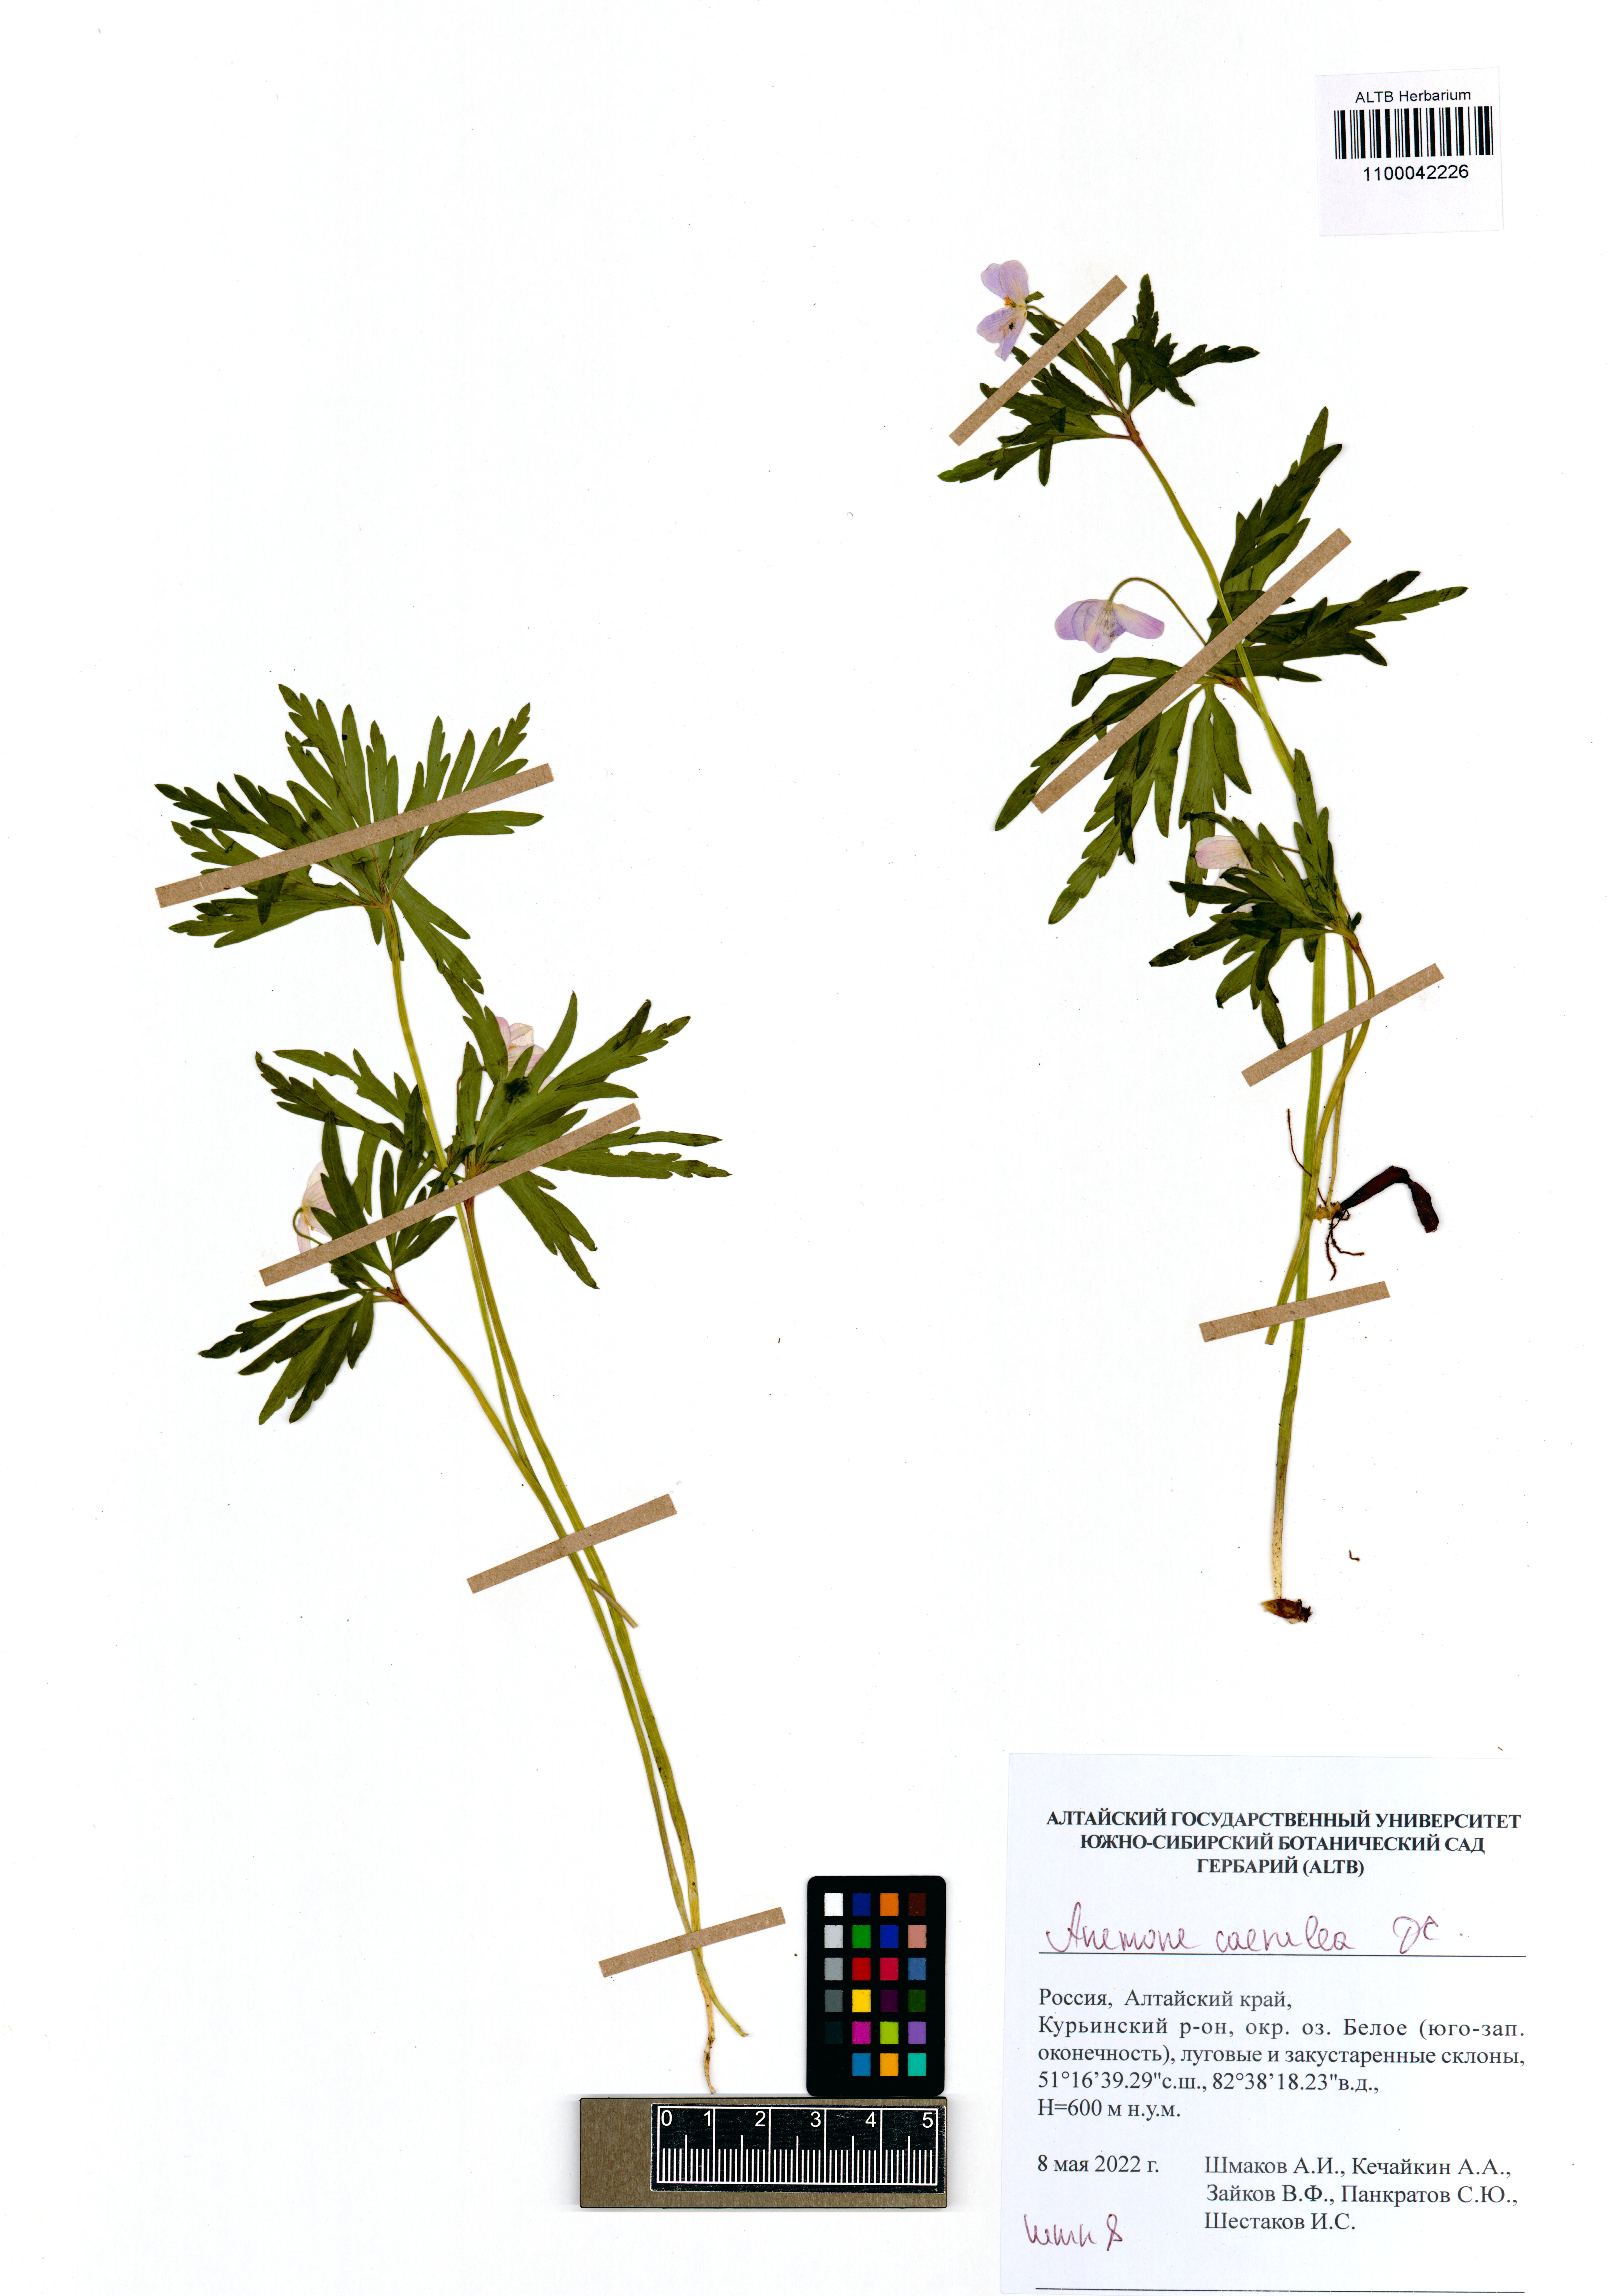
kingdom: Plantae
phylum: Tracheophyta
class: Magnoliopsida
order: Ranunculales
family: Ranunculaceae
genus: Anemone
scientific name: Anemone caerulea
